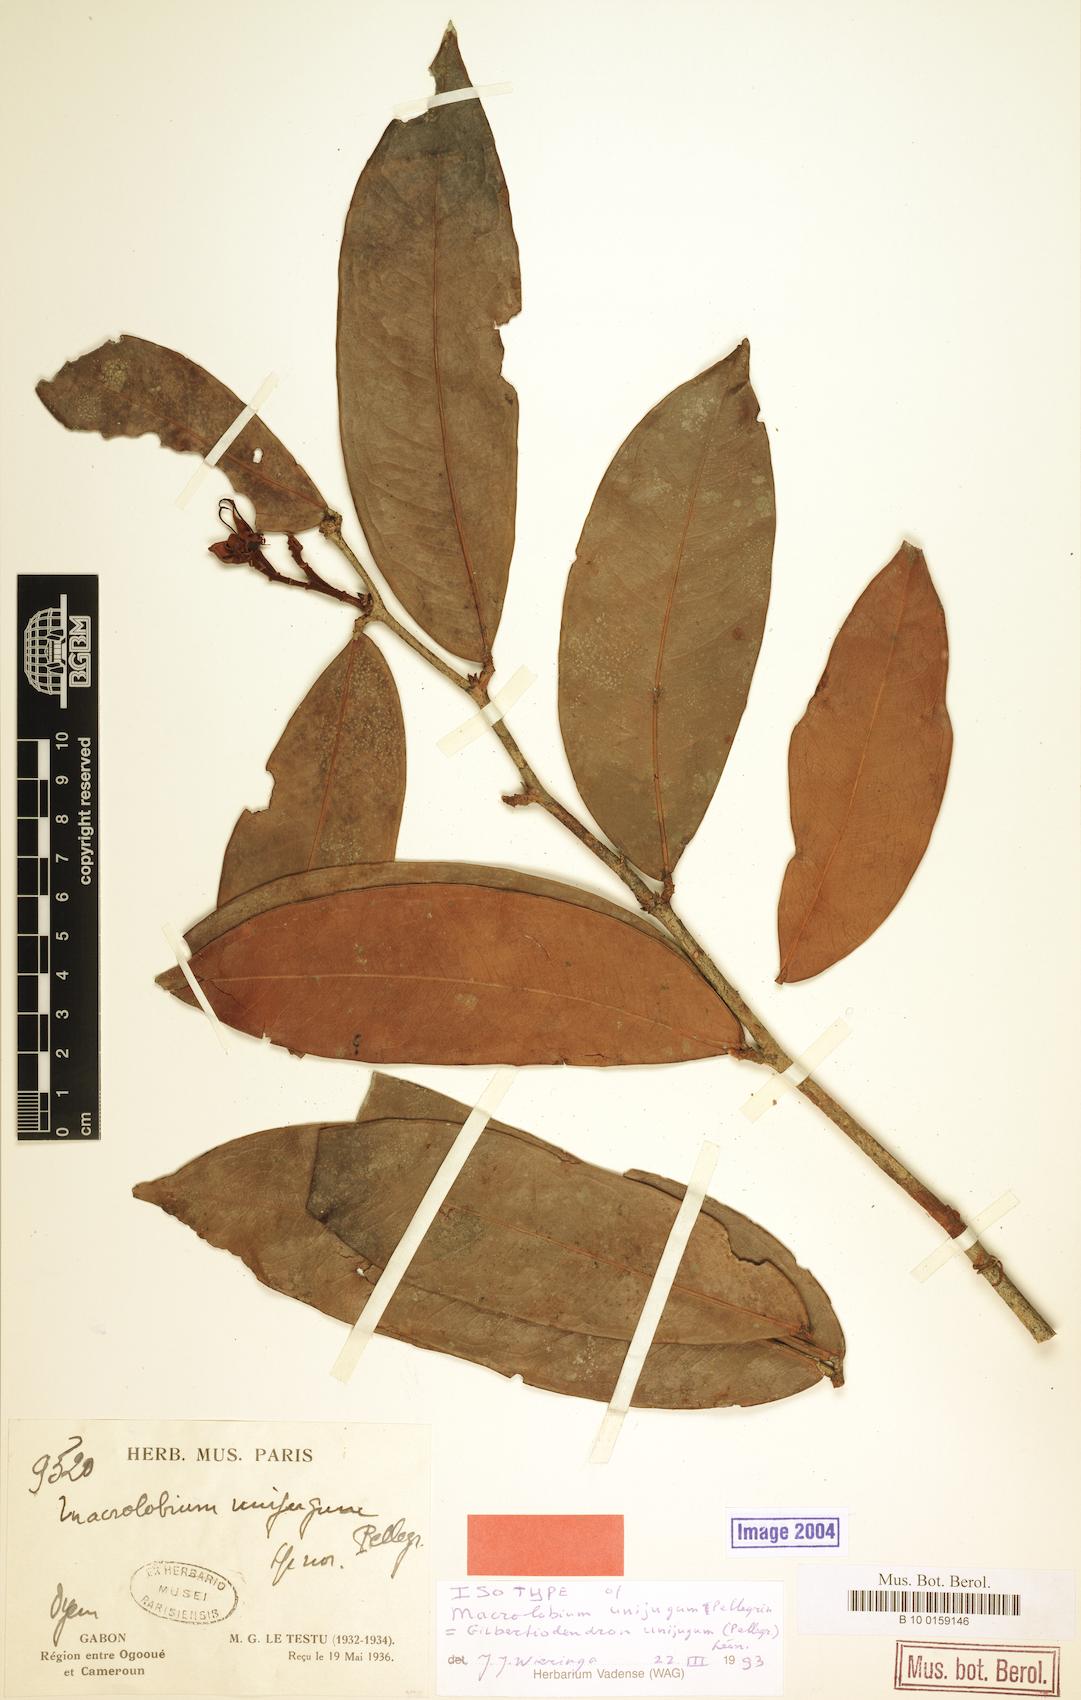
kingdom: Plantae
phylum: Tracheophyta
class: Magnoliopsida
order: Fabales
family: Fabaceae
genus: Gilbertiodendron
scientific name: Gilbertiodendron unijugum
